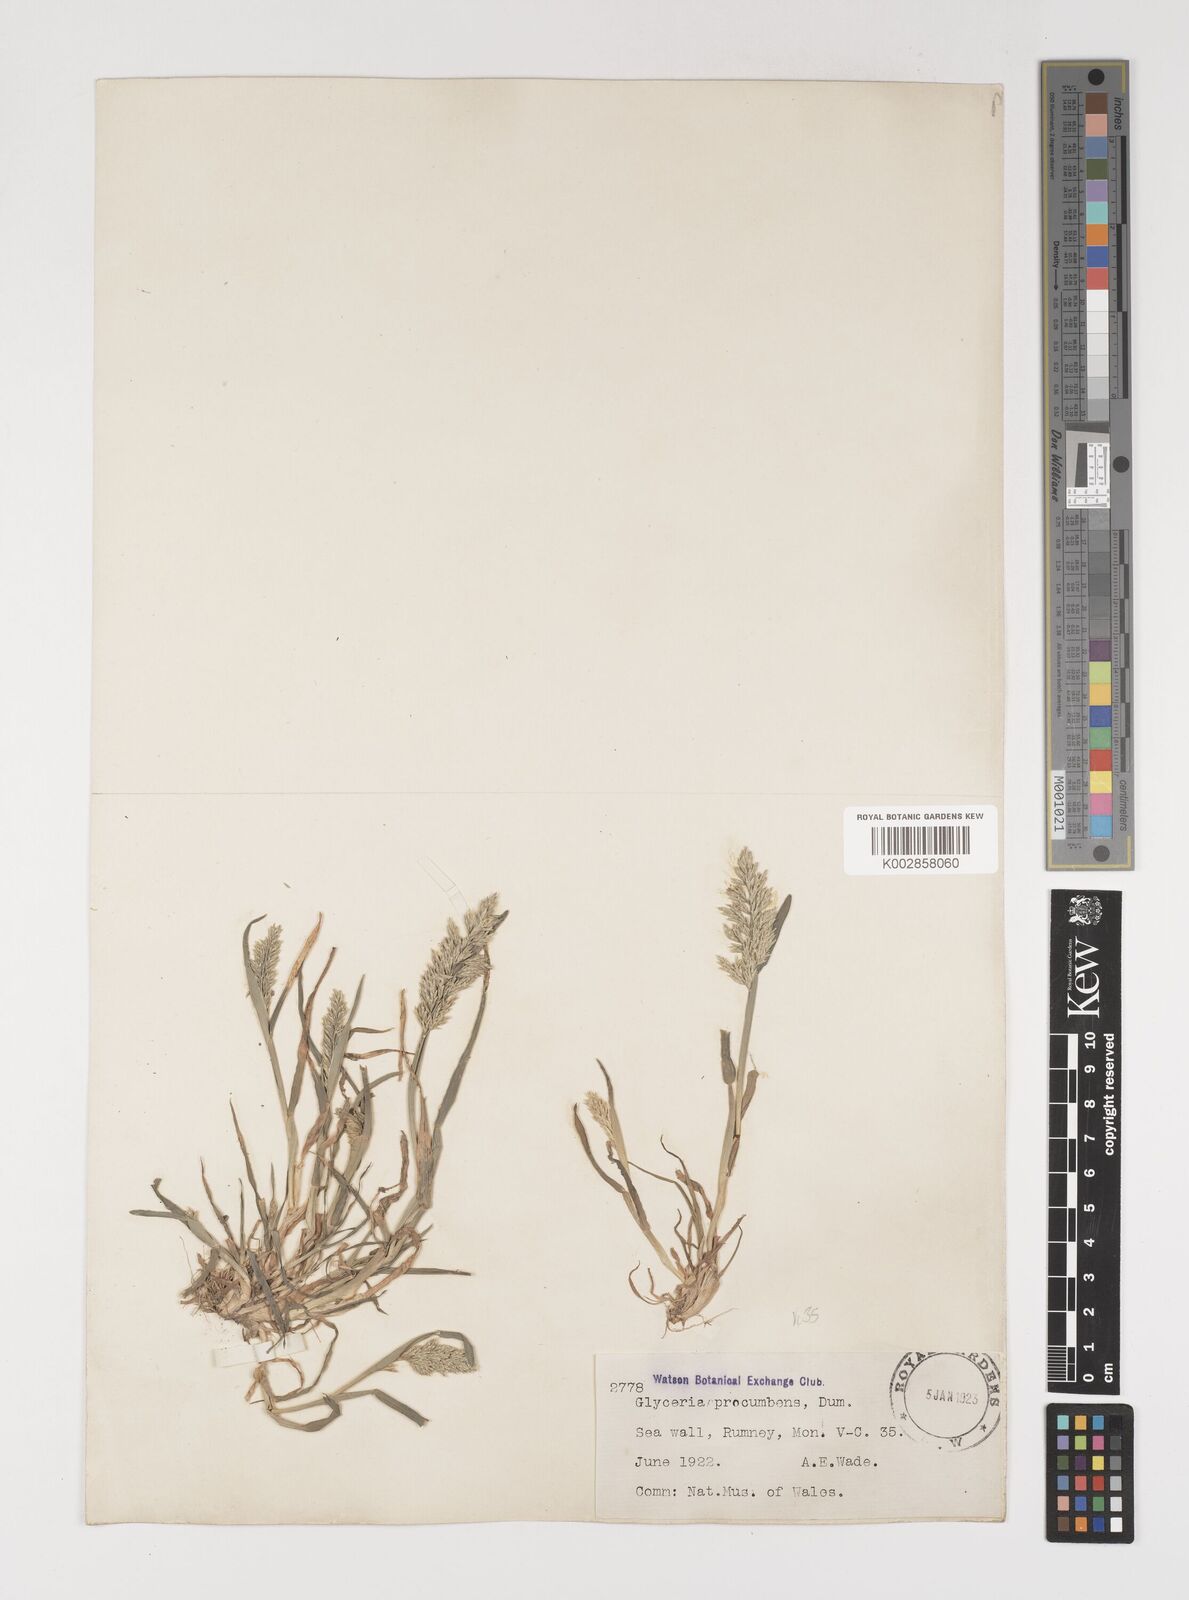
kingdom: Plantae
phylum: Tracheophyta
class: Liliopsida
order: Poales
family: Poaceae
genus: Puccinellia
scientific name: Puccinellia rupestris
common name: Stiff saltmarsh-grass
